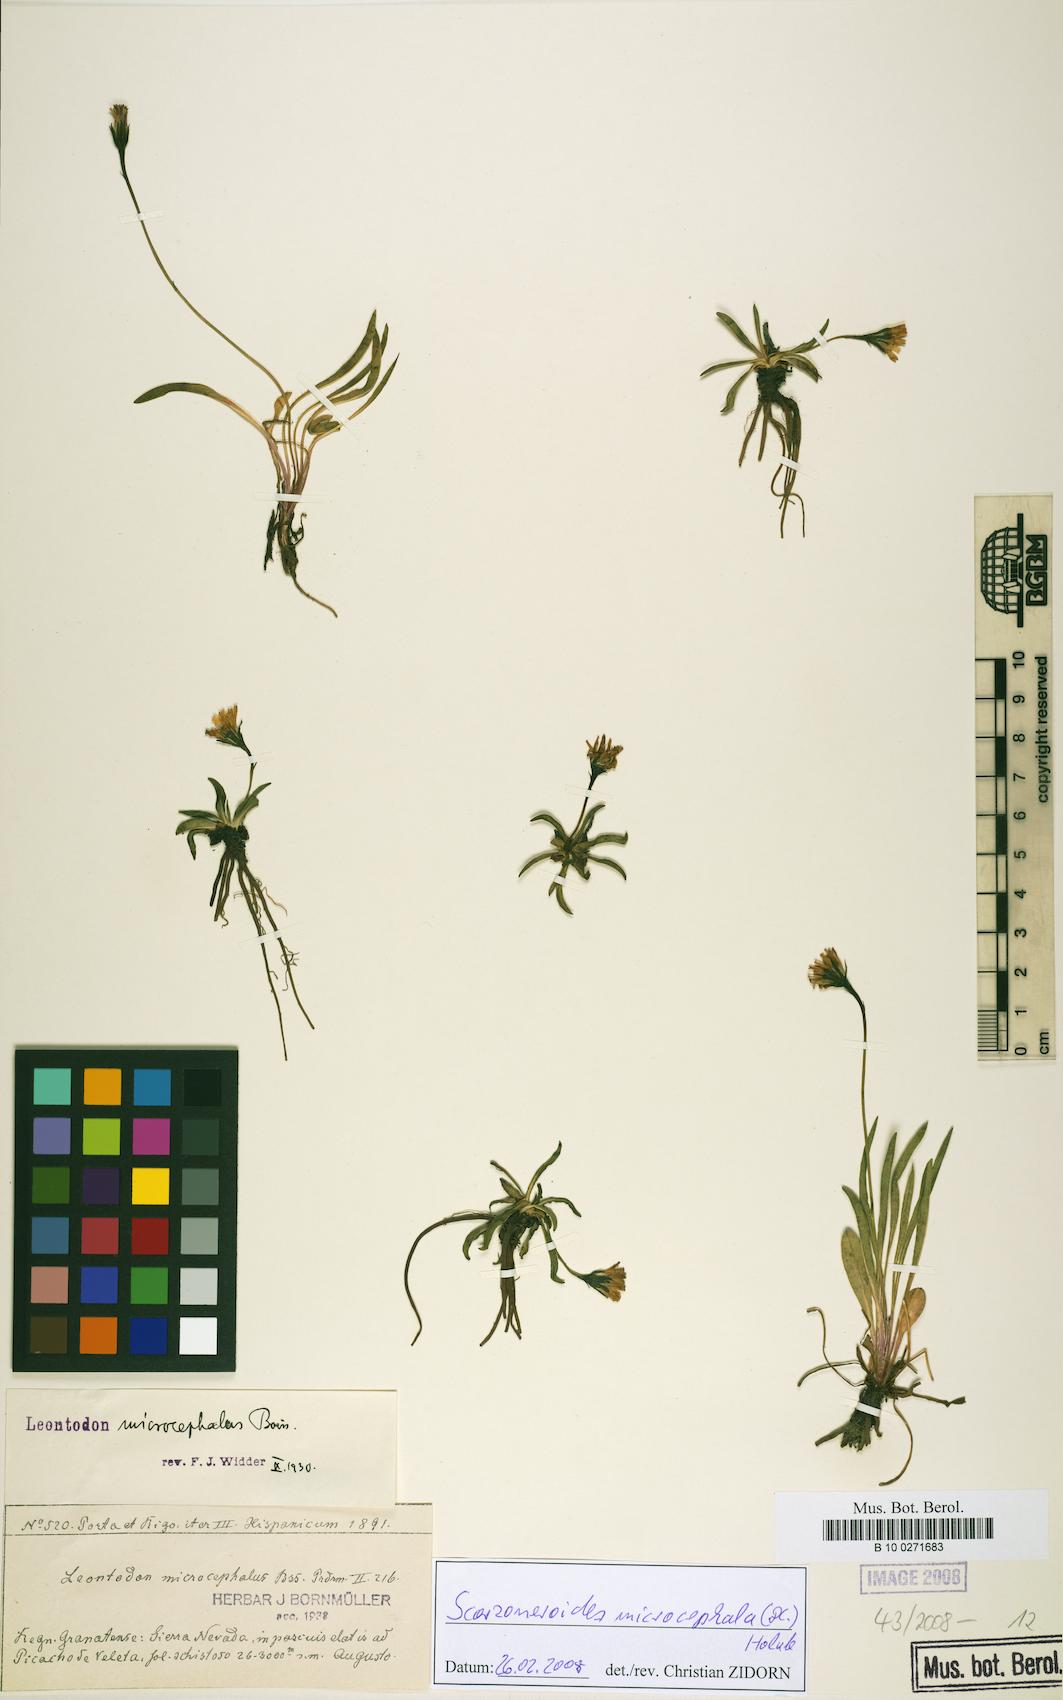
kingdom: Plantae
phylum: Tracheophyta
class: Magnoliopsida
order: Asterales
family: Asteraceae
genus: Scorzoneroides
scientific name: Scorzoneroides microcephala
